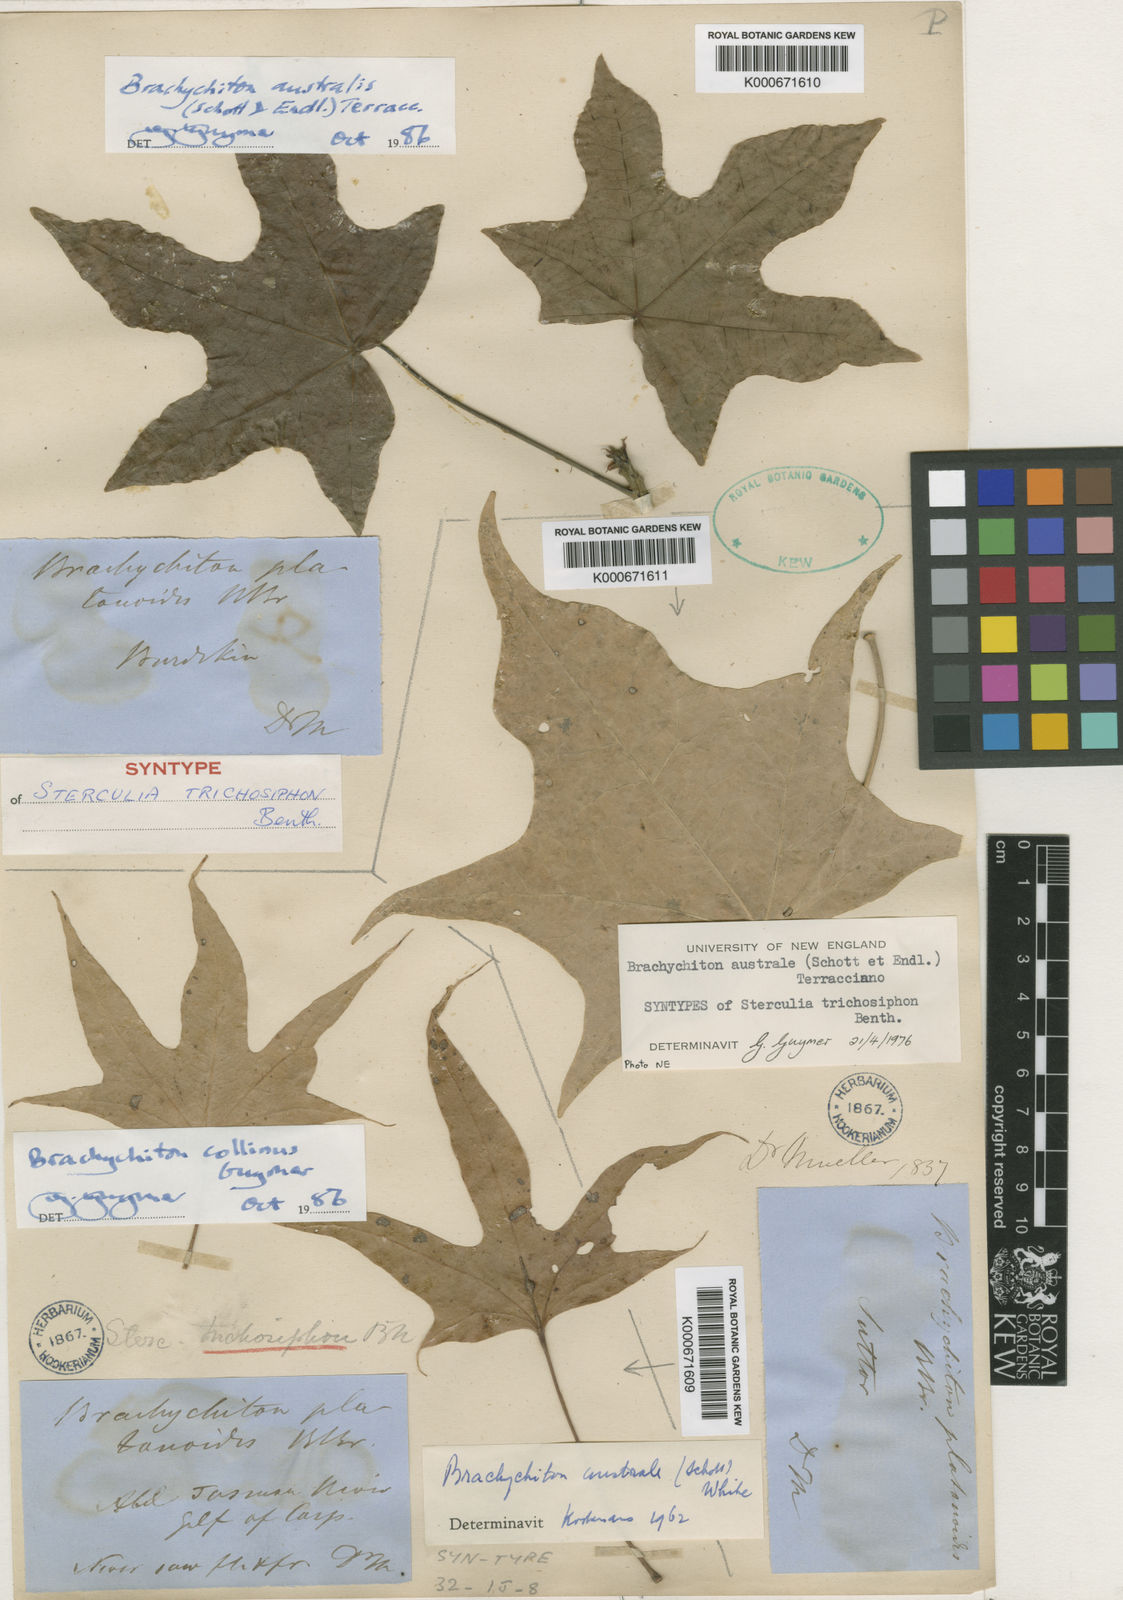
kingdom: Plantae
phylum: Tracheophyta
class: Magnoliopsida
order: Malvales
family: Malvaceae
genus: Brachychiton
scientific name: Brachychiton collinus
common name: Hill kurrajong
